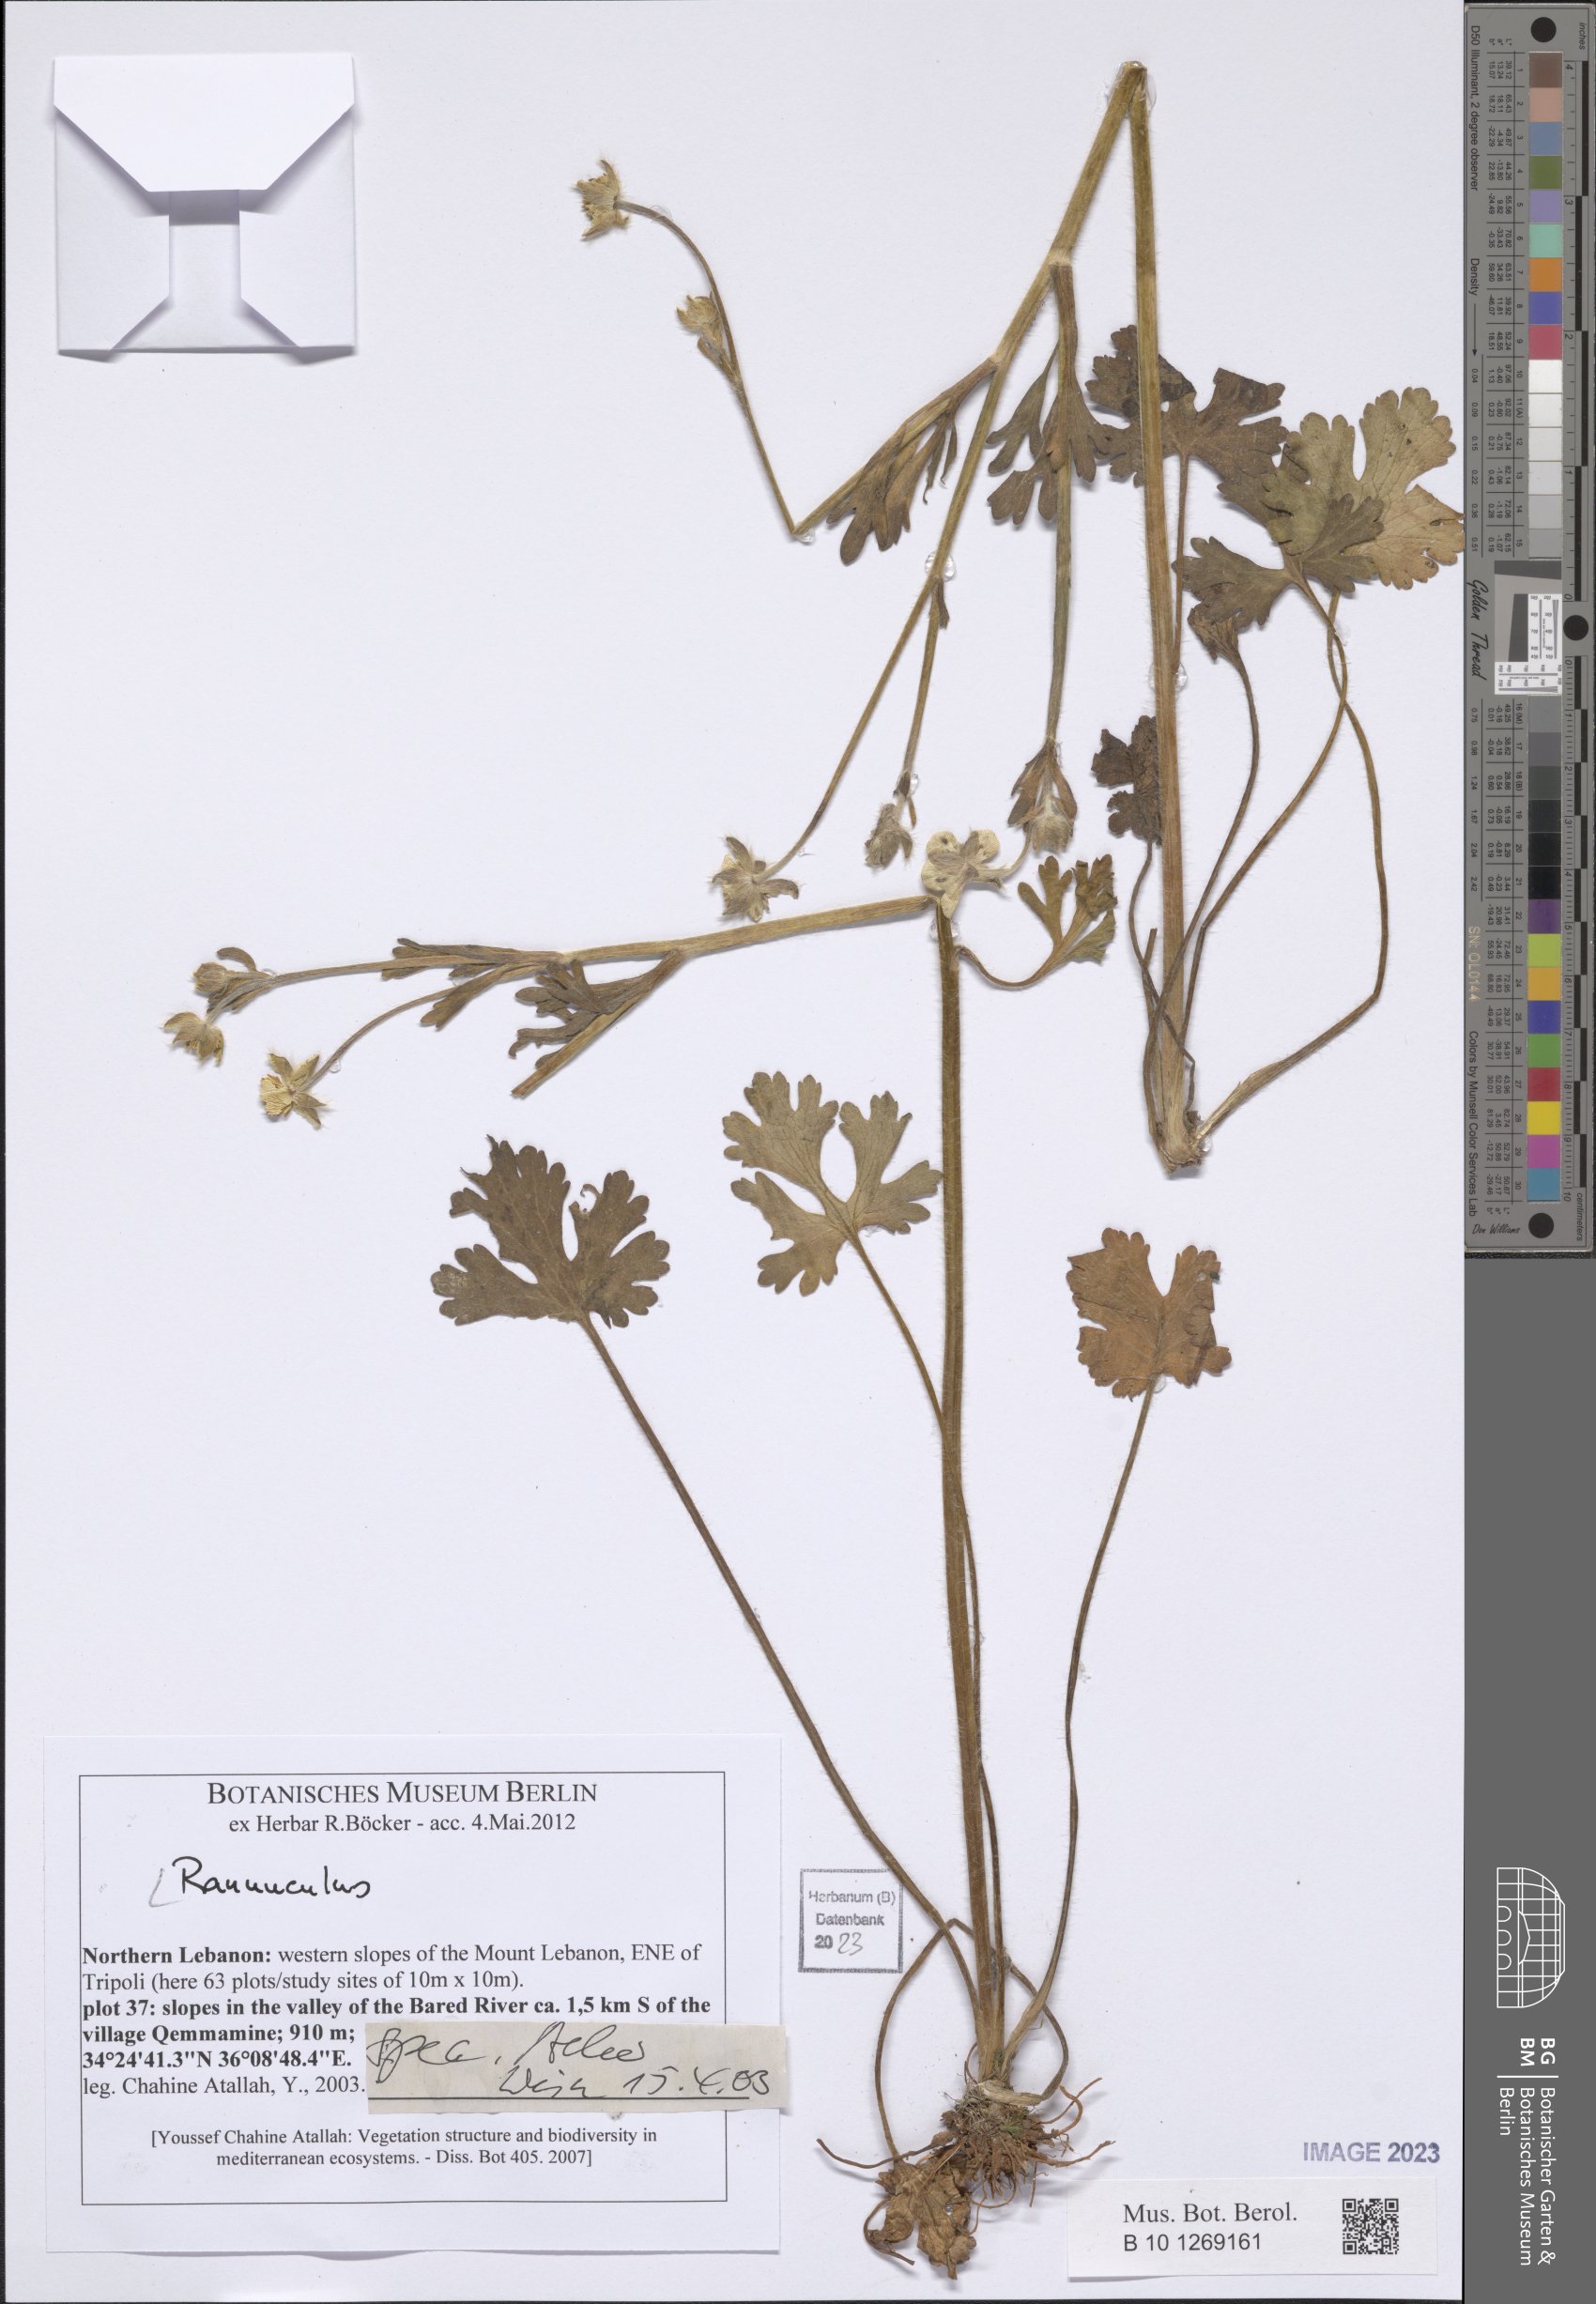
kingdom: Plantae
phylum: Tracheophyta
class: Magnoliopsida
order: Ranunculales
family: Ranunculaceae
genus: Ranunculus
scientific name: Ranunculus
